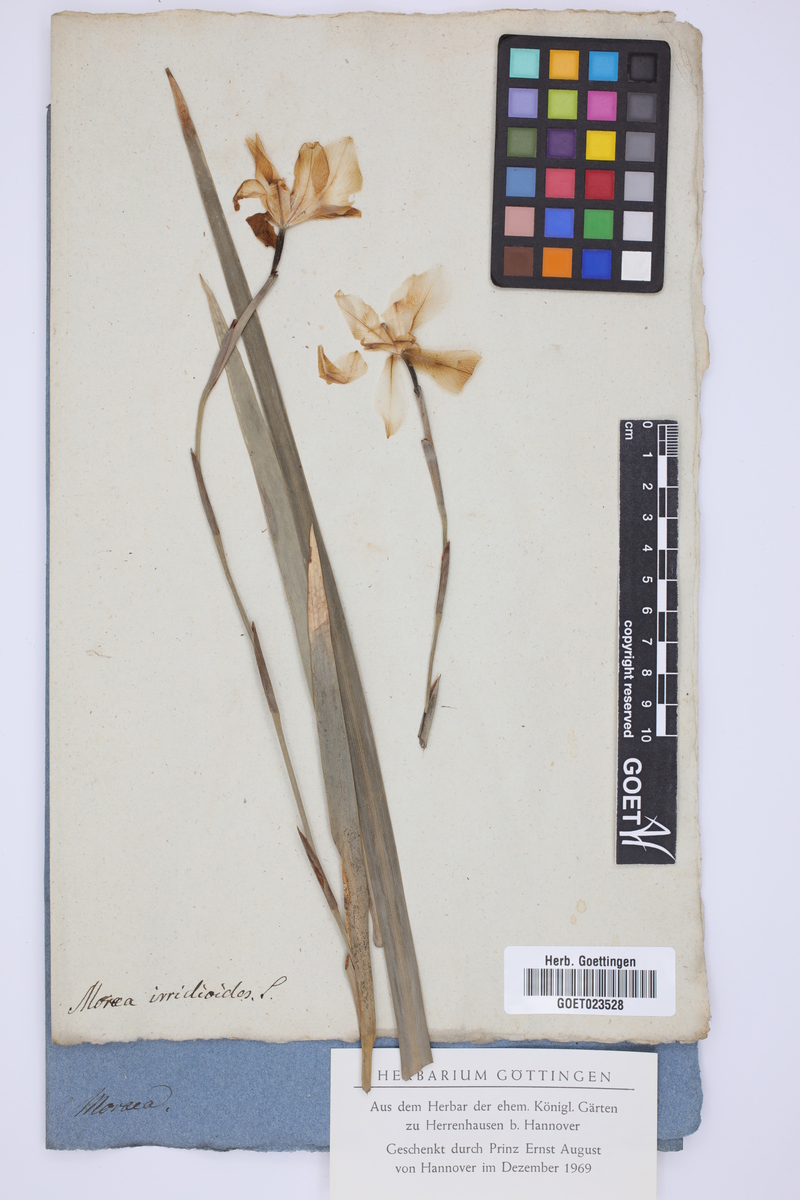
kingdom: Plantae
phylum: Tracheophyta
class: Liliopsida
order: Asparagales
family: Iridaceae
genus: Dietes
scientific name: Dietes iridioides
